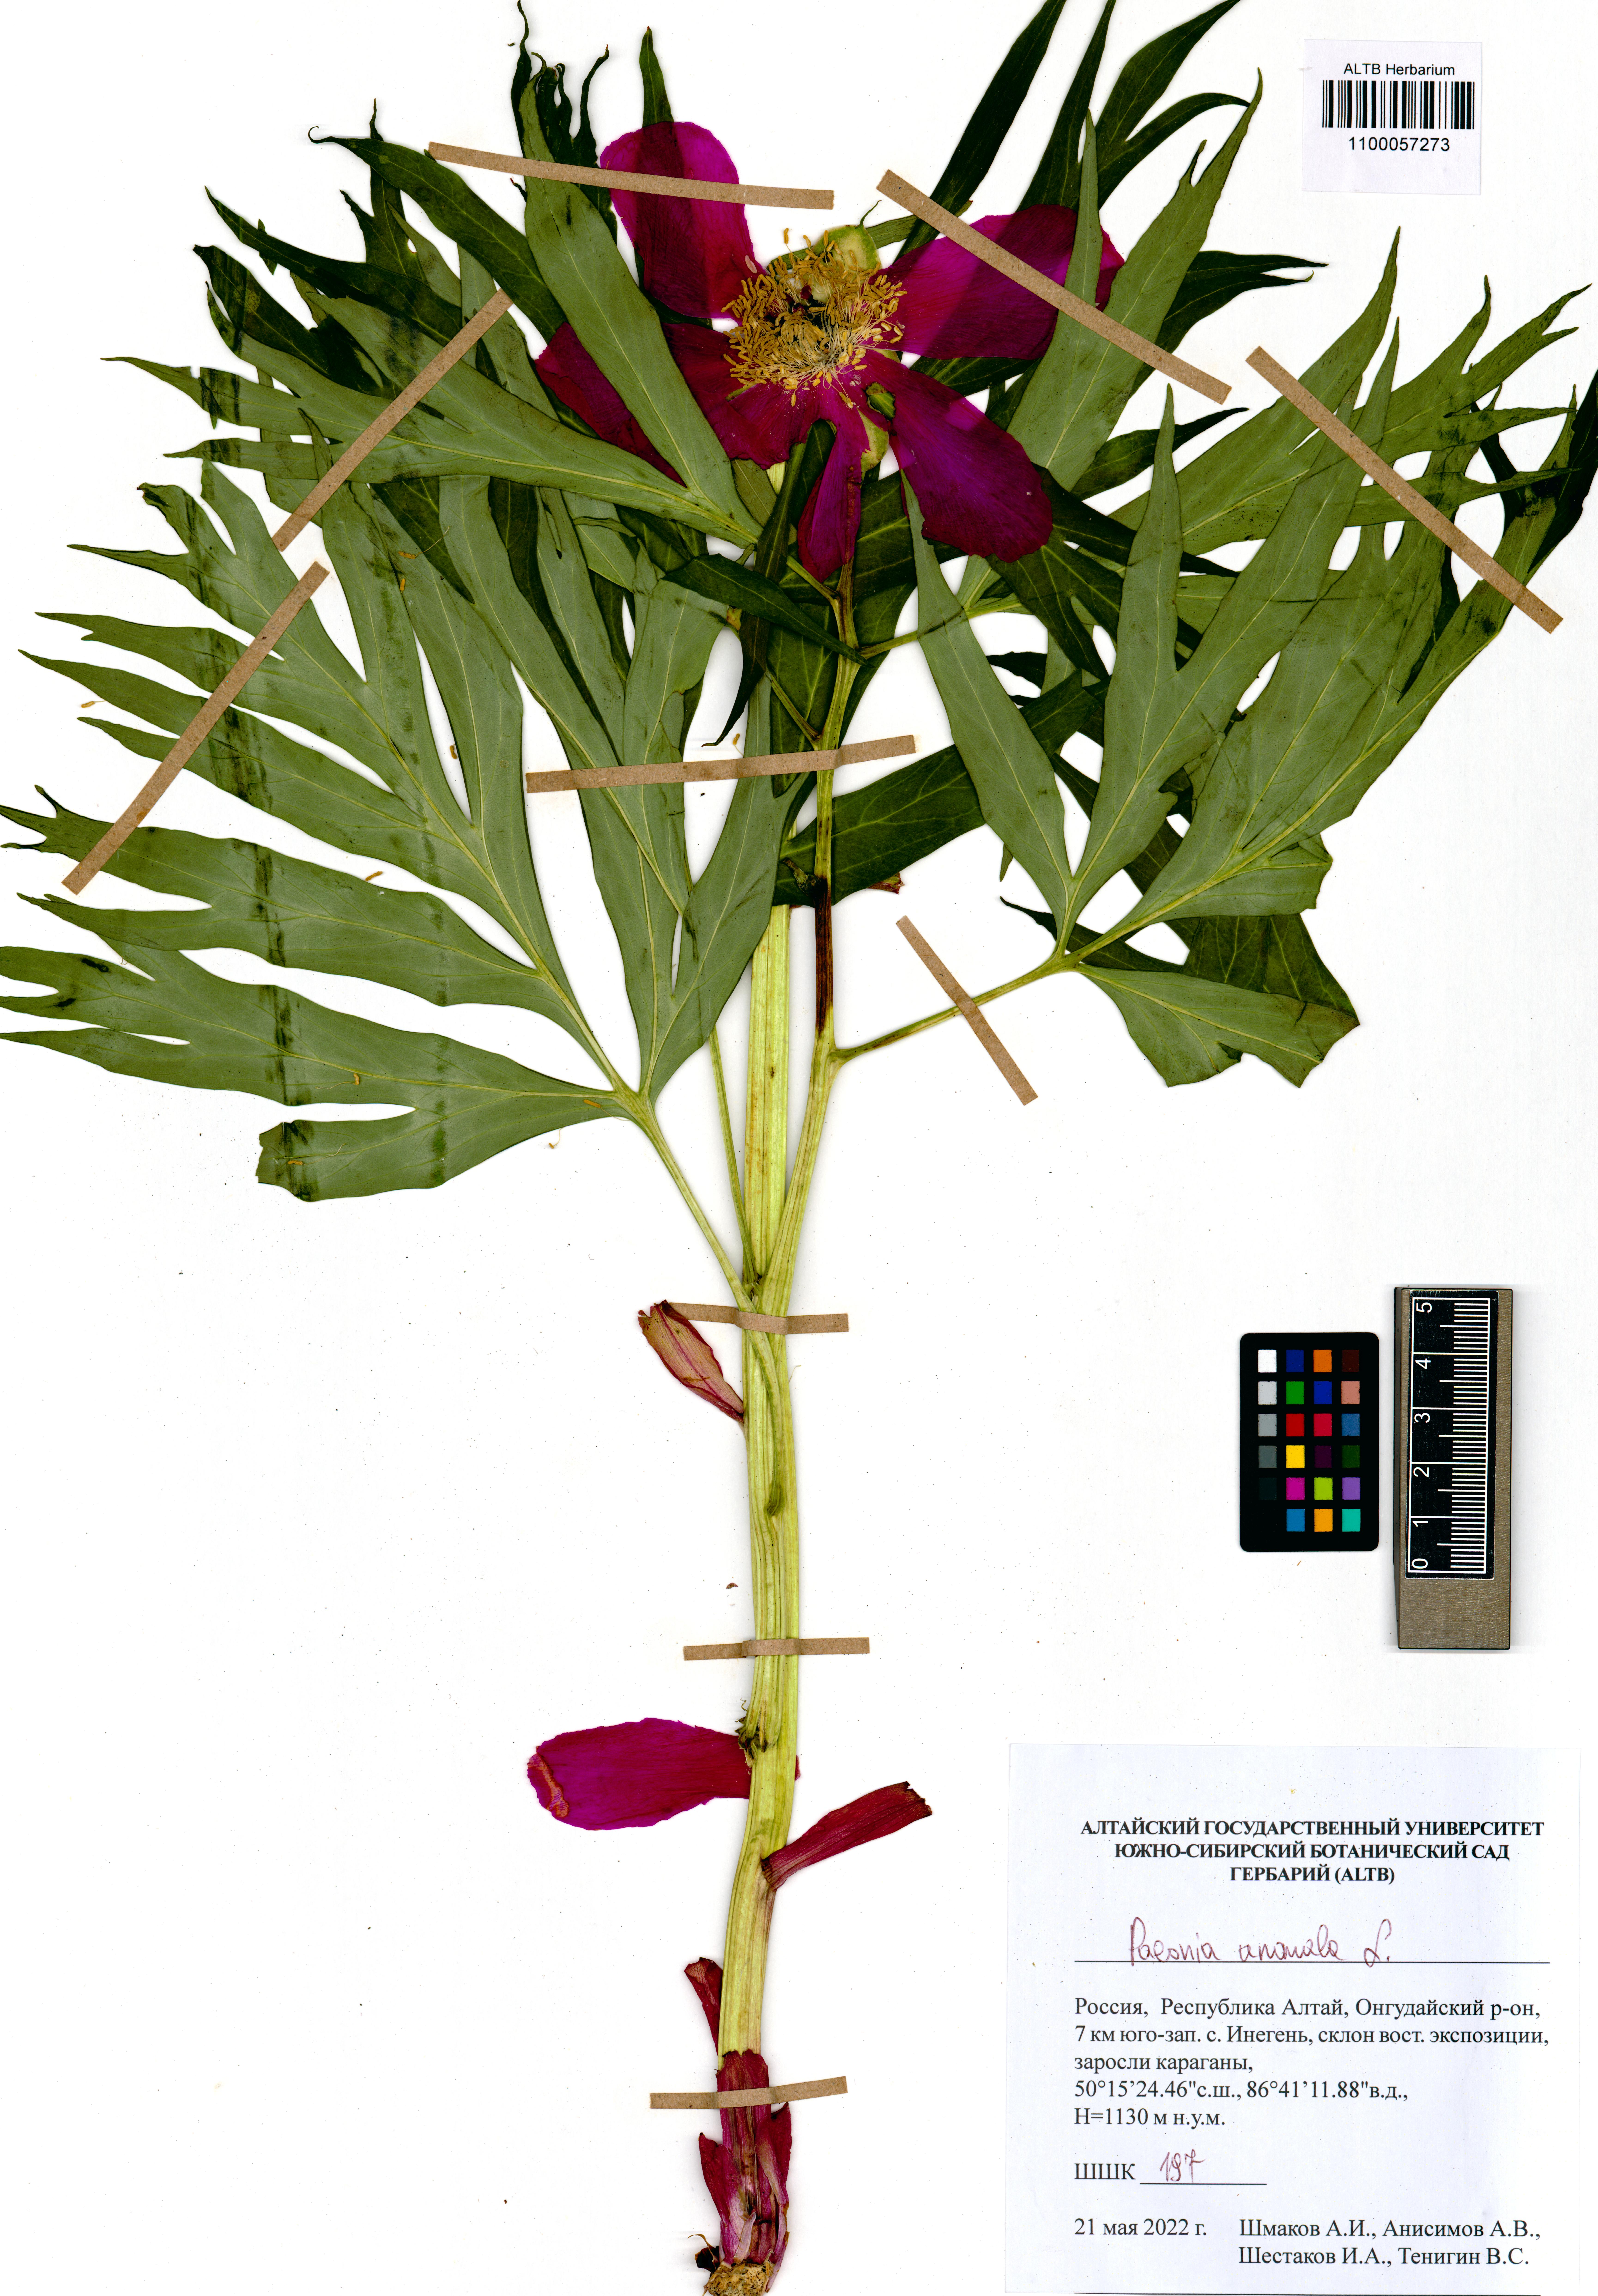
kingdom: Plantae
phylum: Tracheophyta
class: Magnoliopsida
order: Saxifragales
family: Paeoniaceae
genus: Paeonia
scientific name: Paeonia anomala
